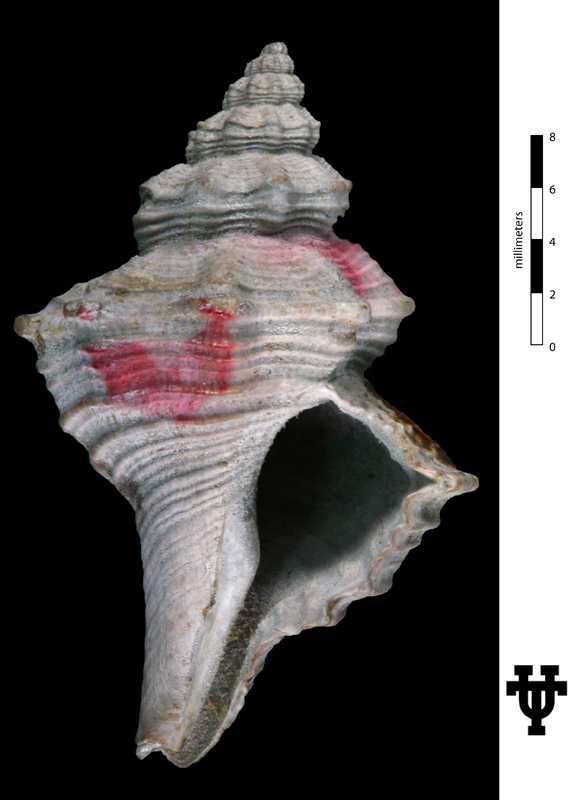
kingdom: Animalia
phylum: Mollusca
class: Gastropoda
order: Neogastropoda
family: Fasciolariidae
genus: Clavilithes
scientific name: Clavilithes regexus
